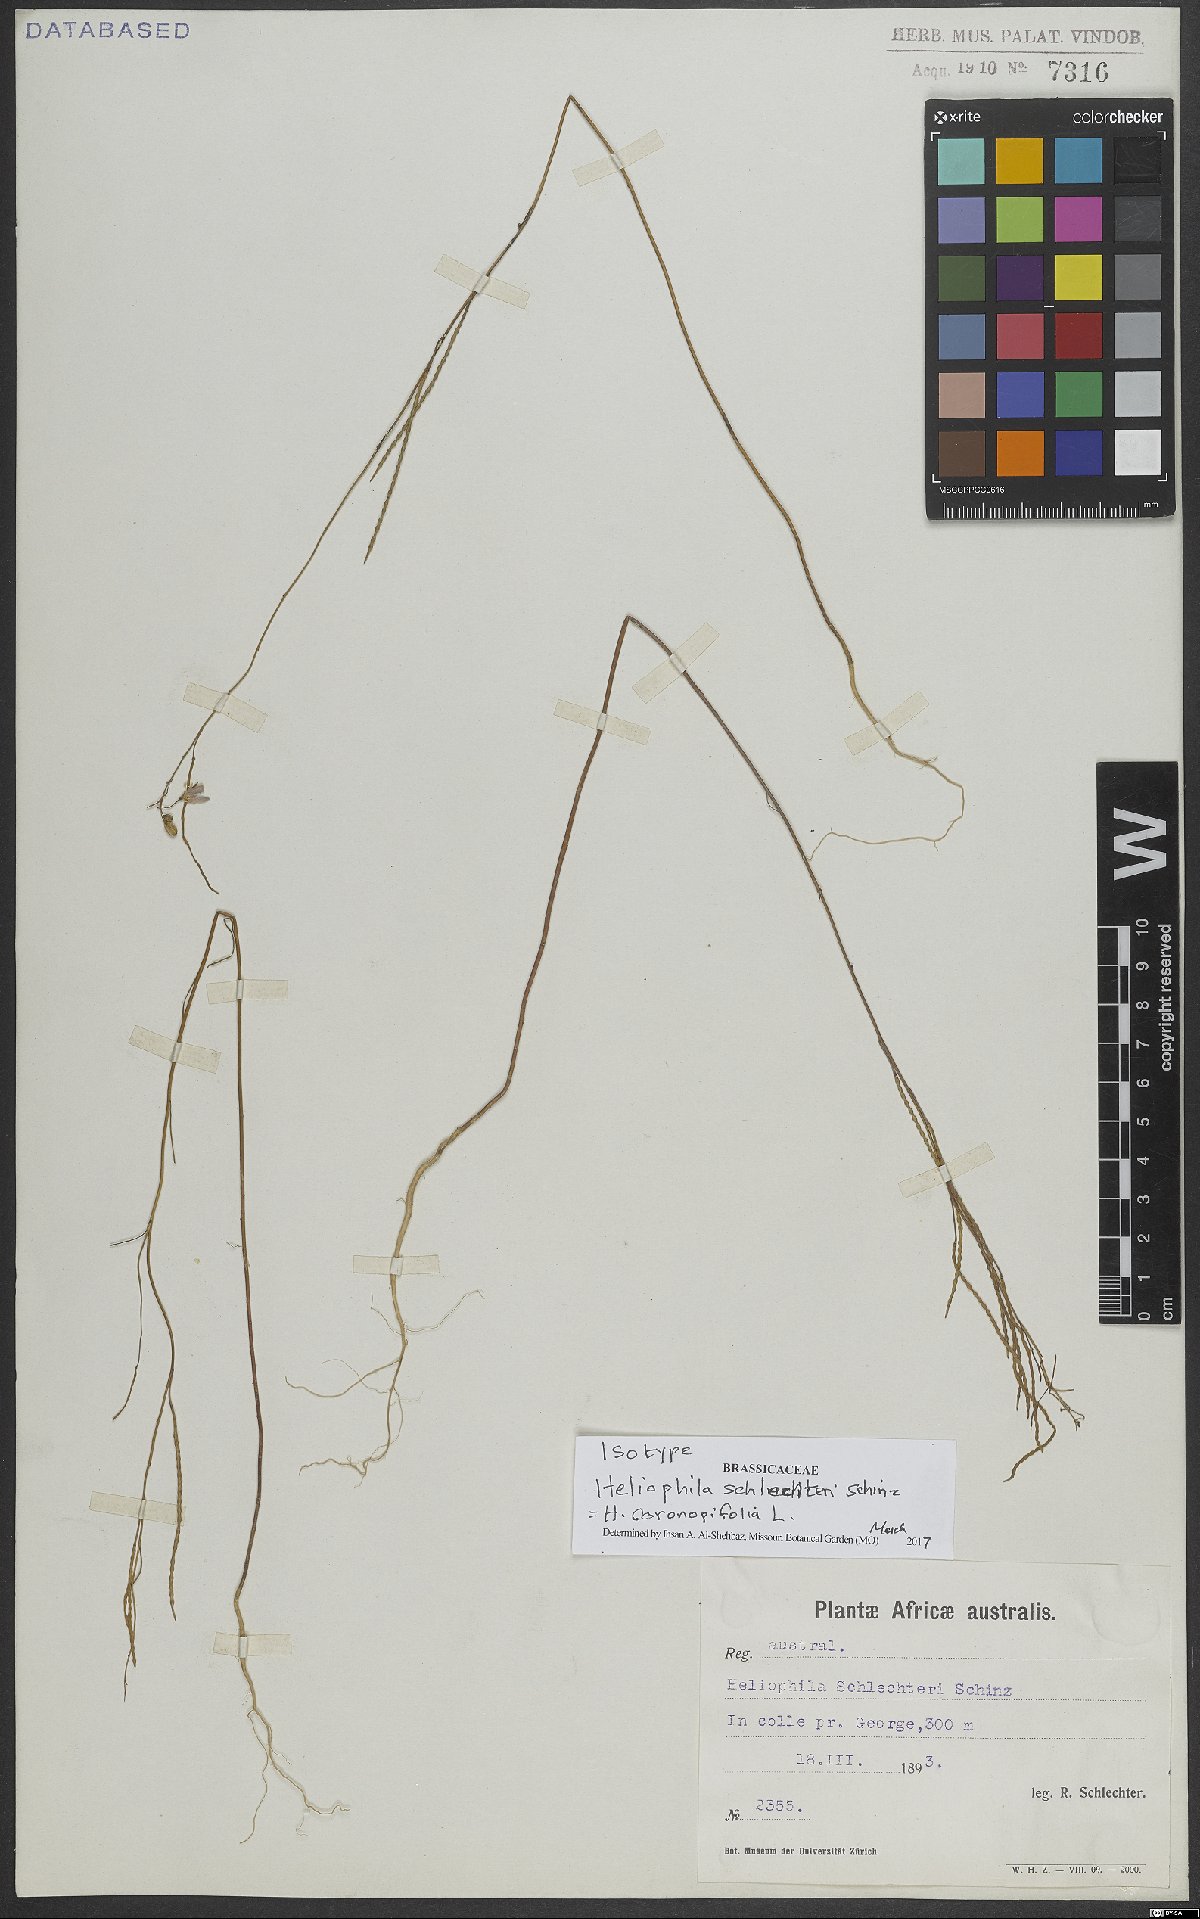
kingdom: Plantae
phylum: Tracheophyta
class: Magnoliopsida
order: Brassicales
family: Brassicaceae
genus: Heliophila
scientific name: Heliophila coronopifolia
